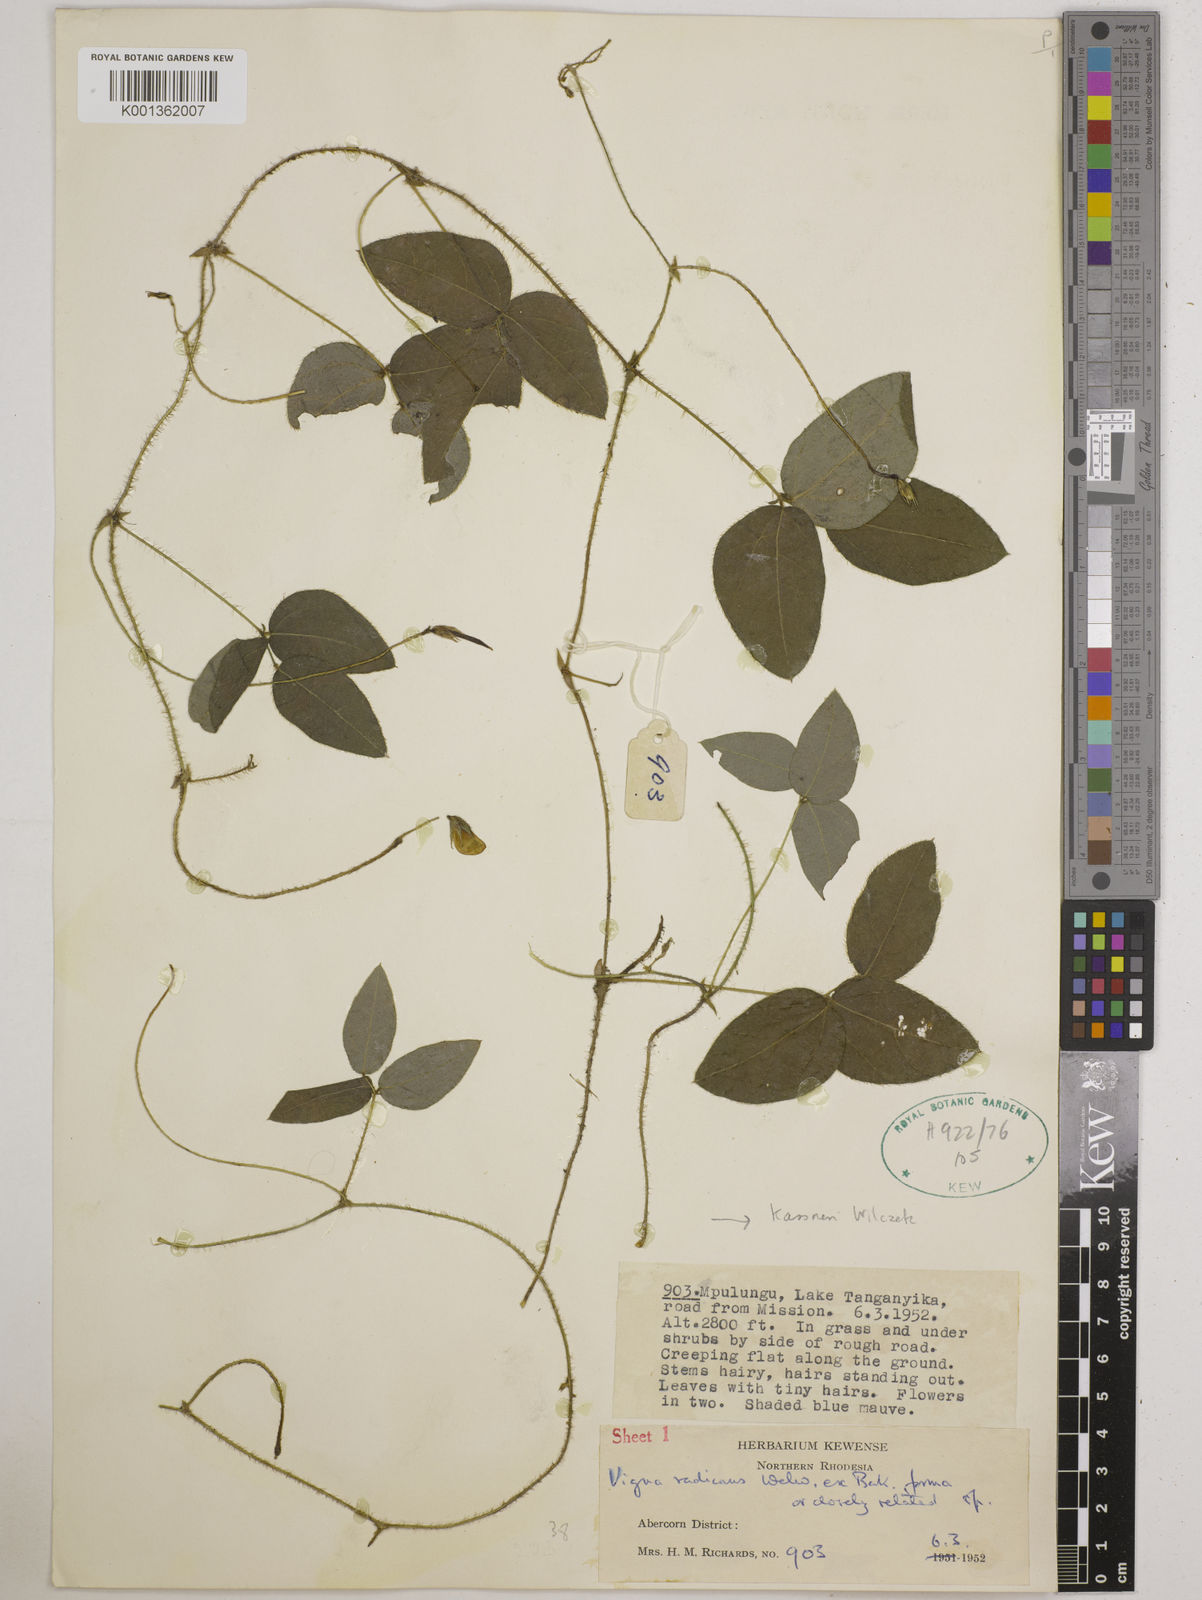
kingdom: Plantae
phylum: Tracheophyta
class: Magnoliopsida
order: Fabales
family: Fabaceae
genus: Vigna
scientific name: Vigna radicans
